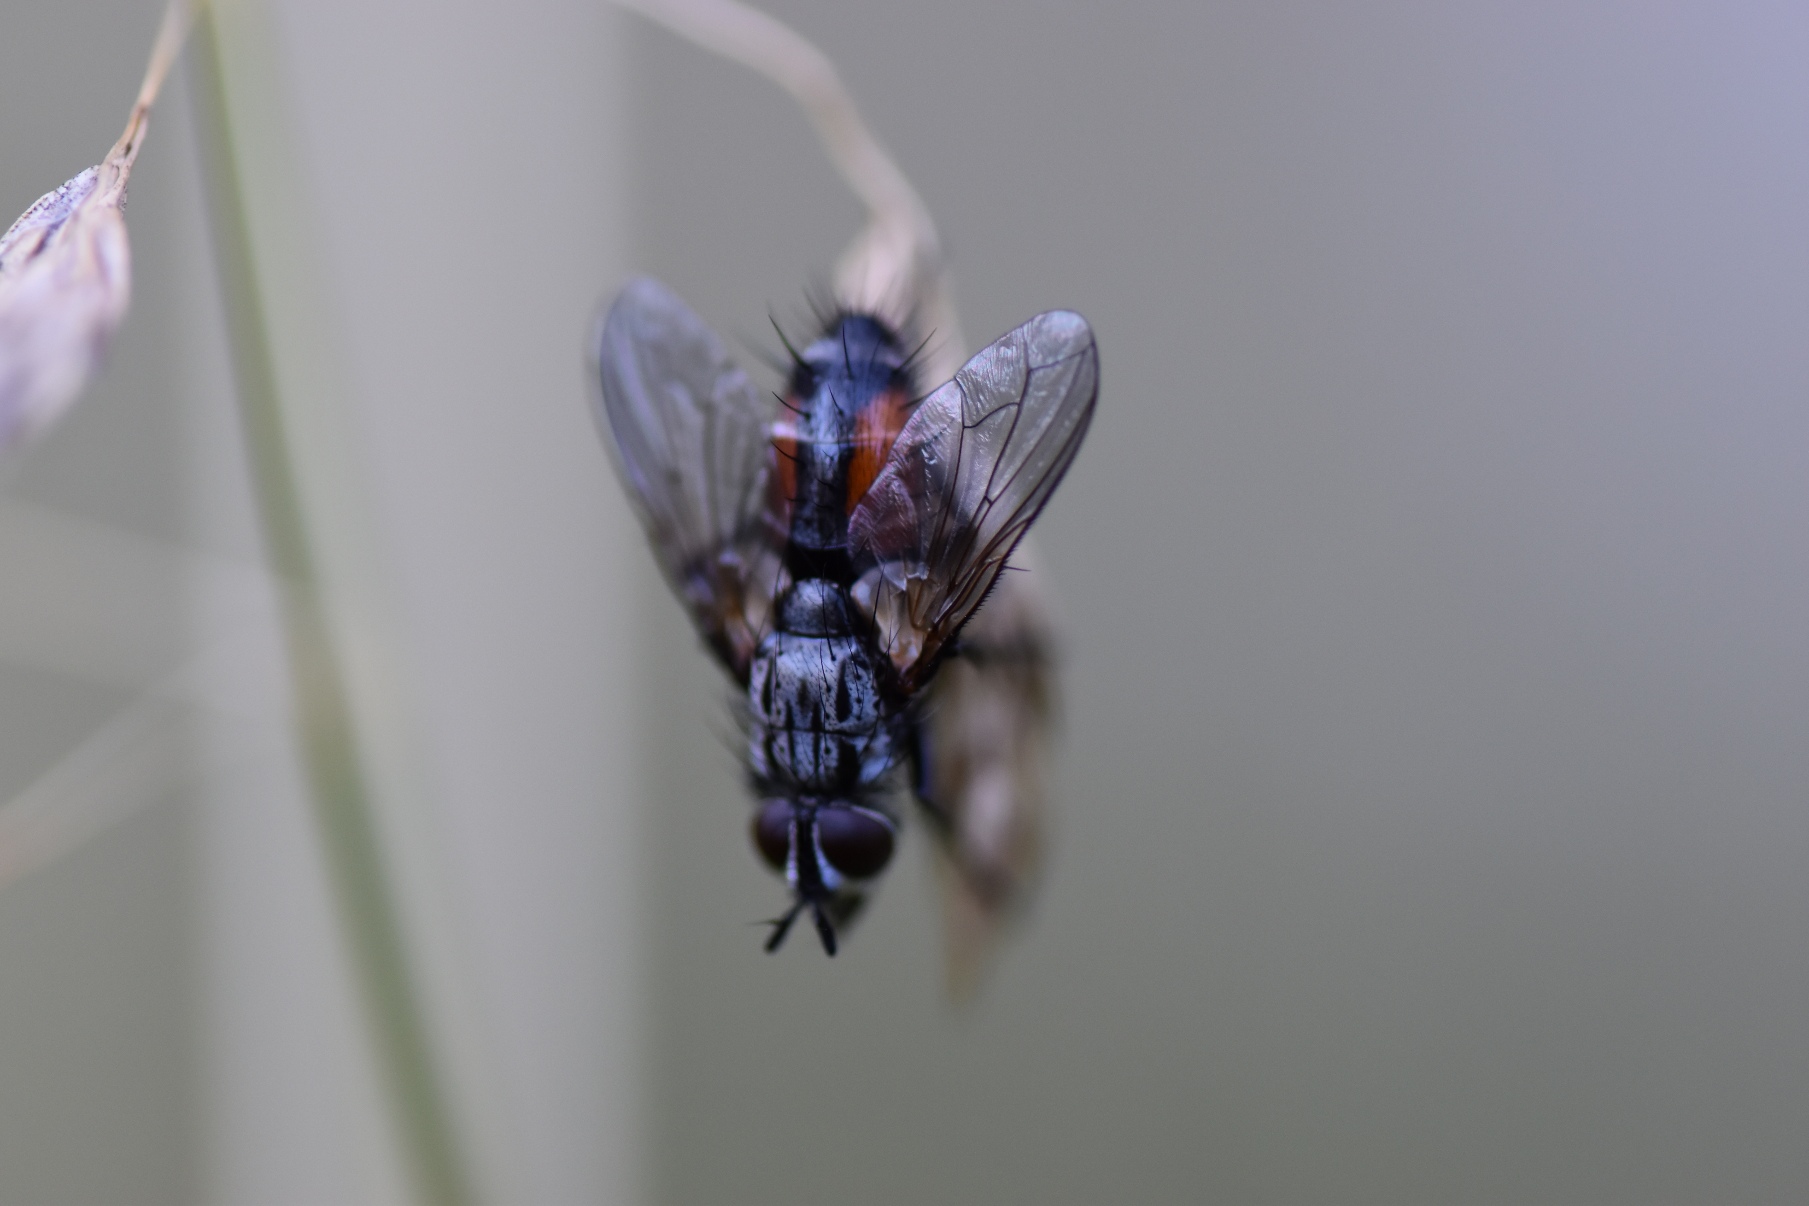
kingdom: Animalia
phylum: Arthropoda
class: Insecta
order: Diptera
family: Tachinidae
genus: Eriothrix
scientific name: Eriothrix rufomaculatus
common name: Rød snylteflue
